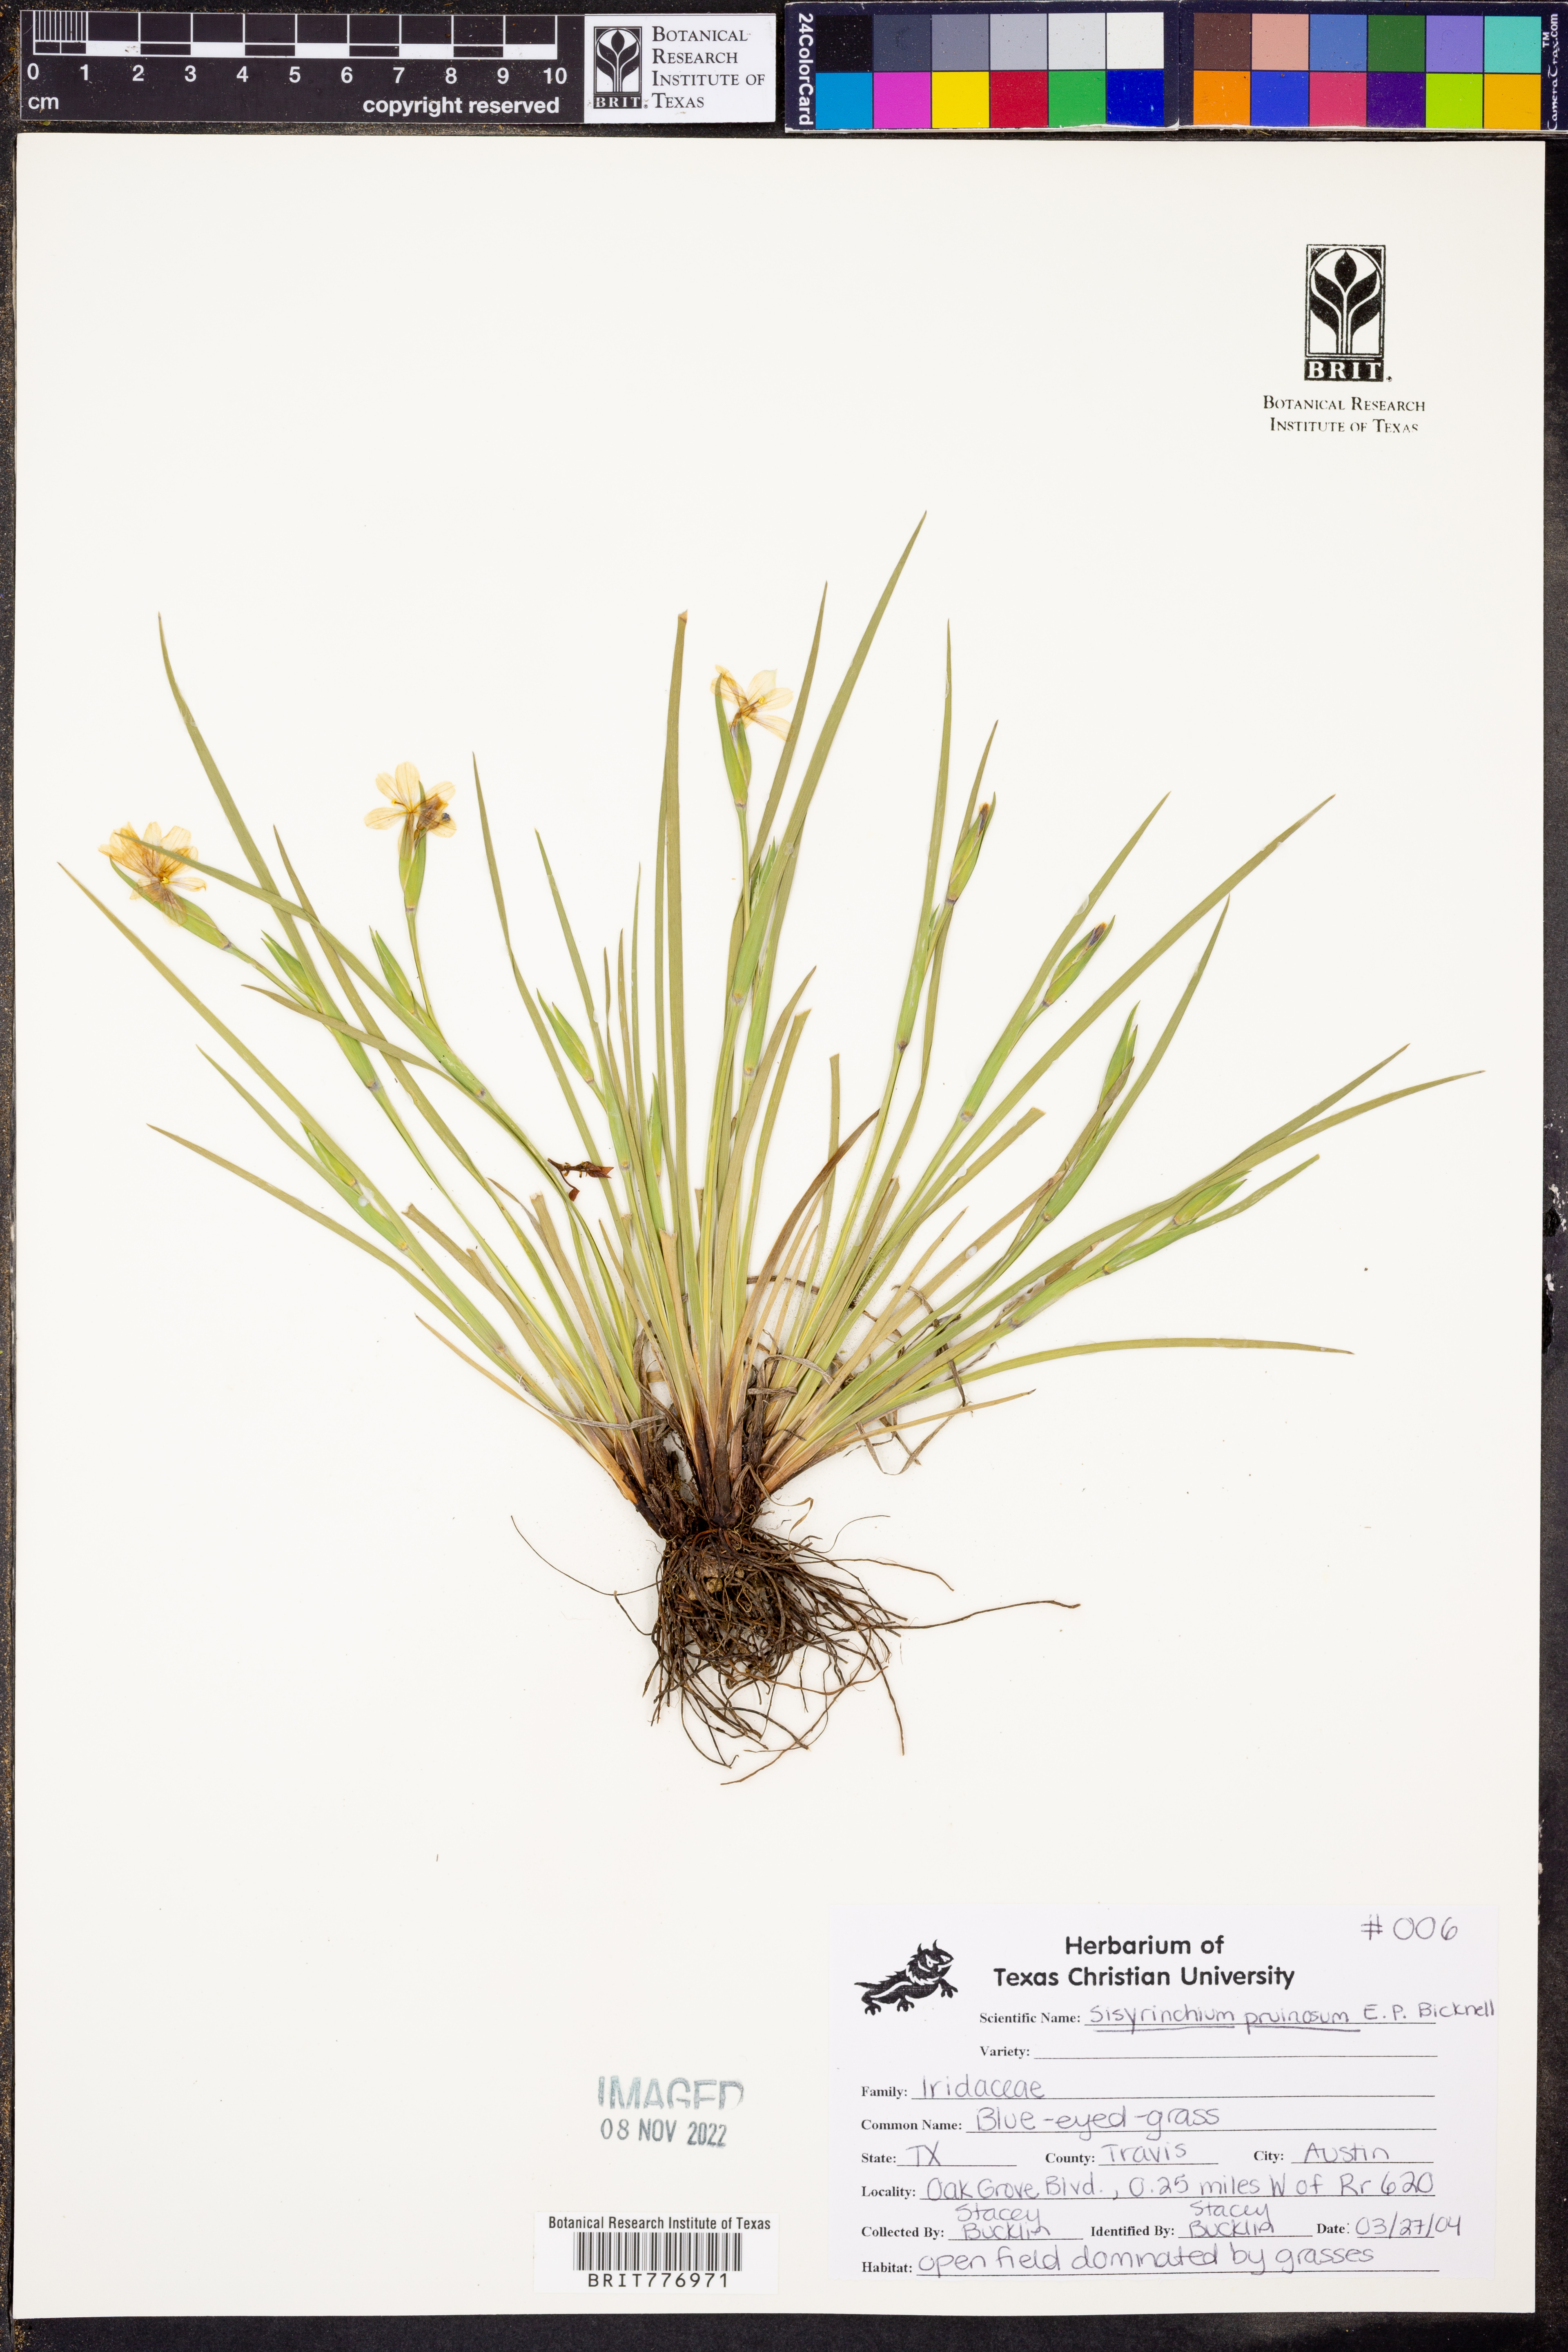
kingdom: Plantae
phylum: Tracheophyta
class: Liliopsida
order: Asparagales
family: Iridaceae
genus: Sisyrinchium
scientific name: Sisyrinchium pruinosum
